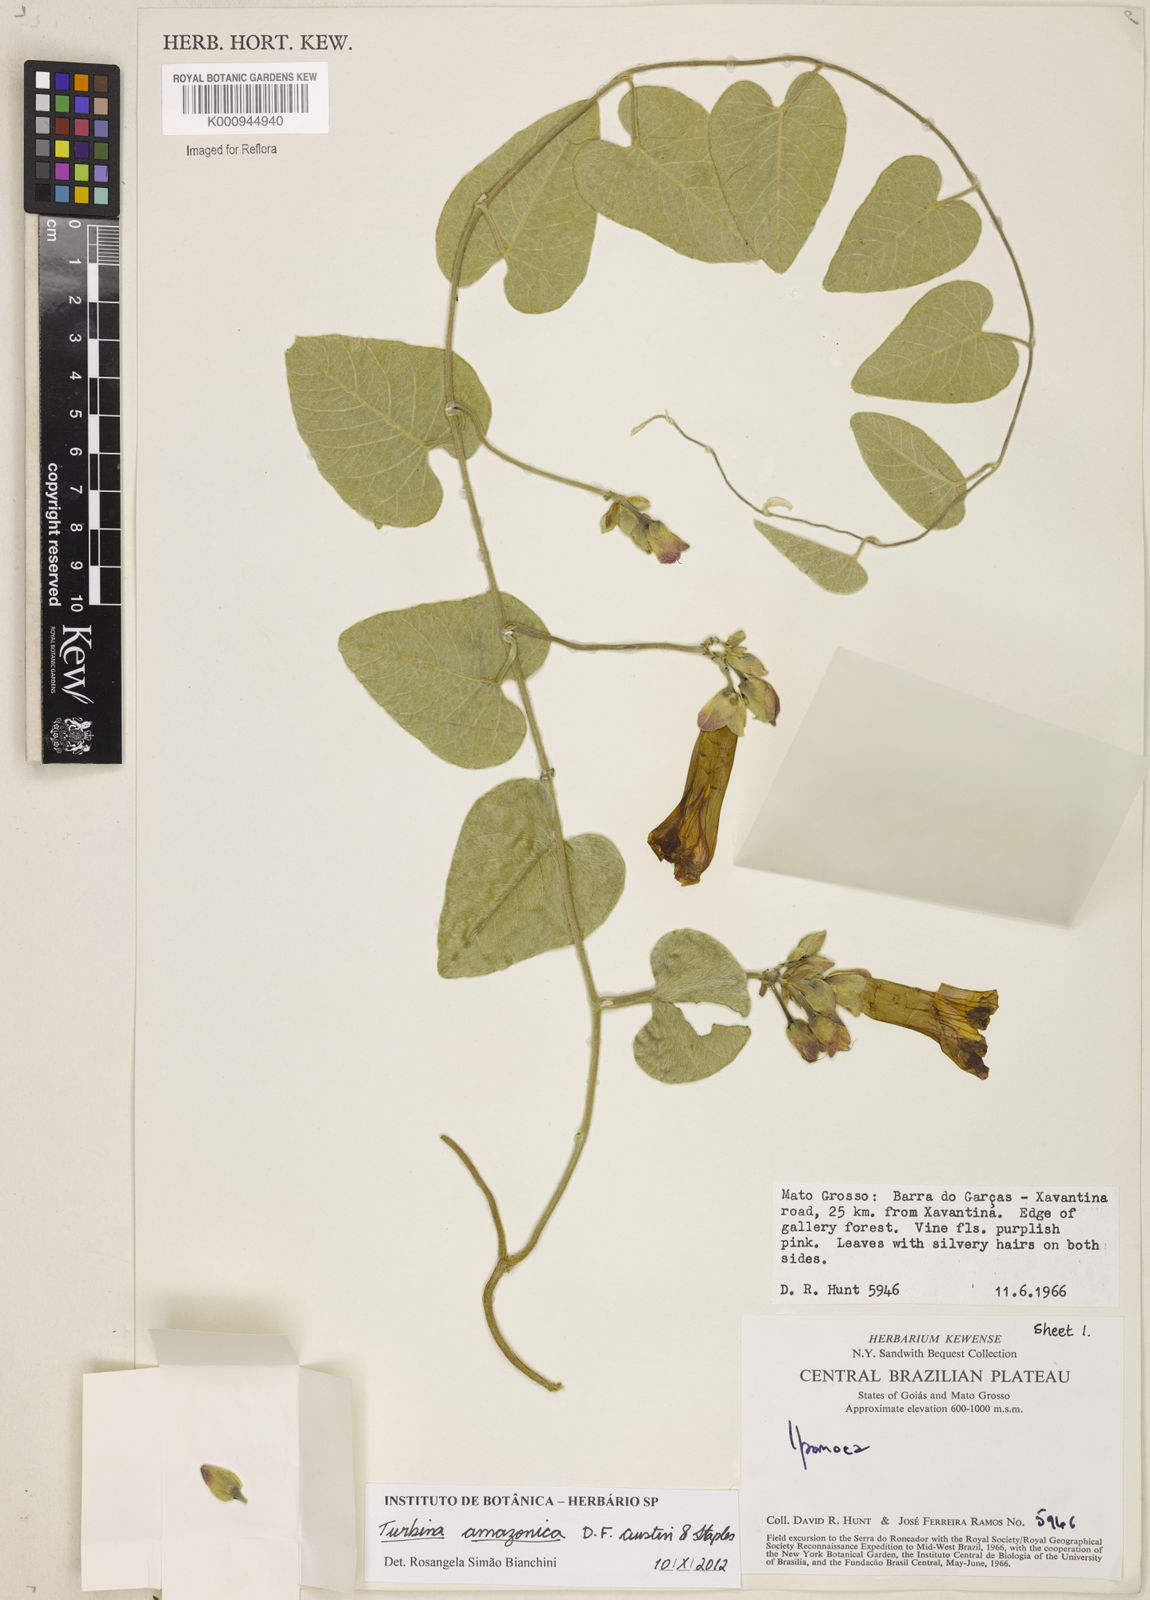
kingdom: Plantae
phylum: Tracheophyta
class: Magnoliopsida
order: Solanales
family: Convolvulaceae
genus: Ipomoea
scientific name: Ipomoea amazonica
